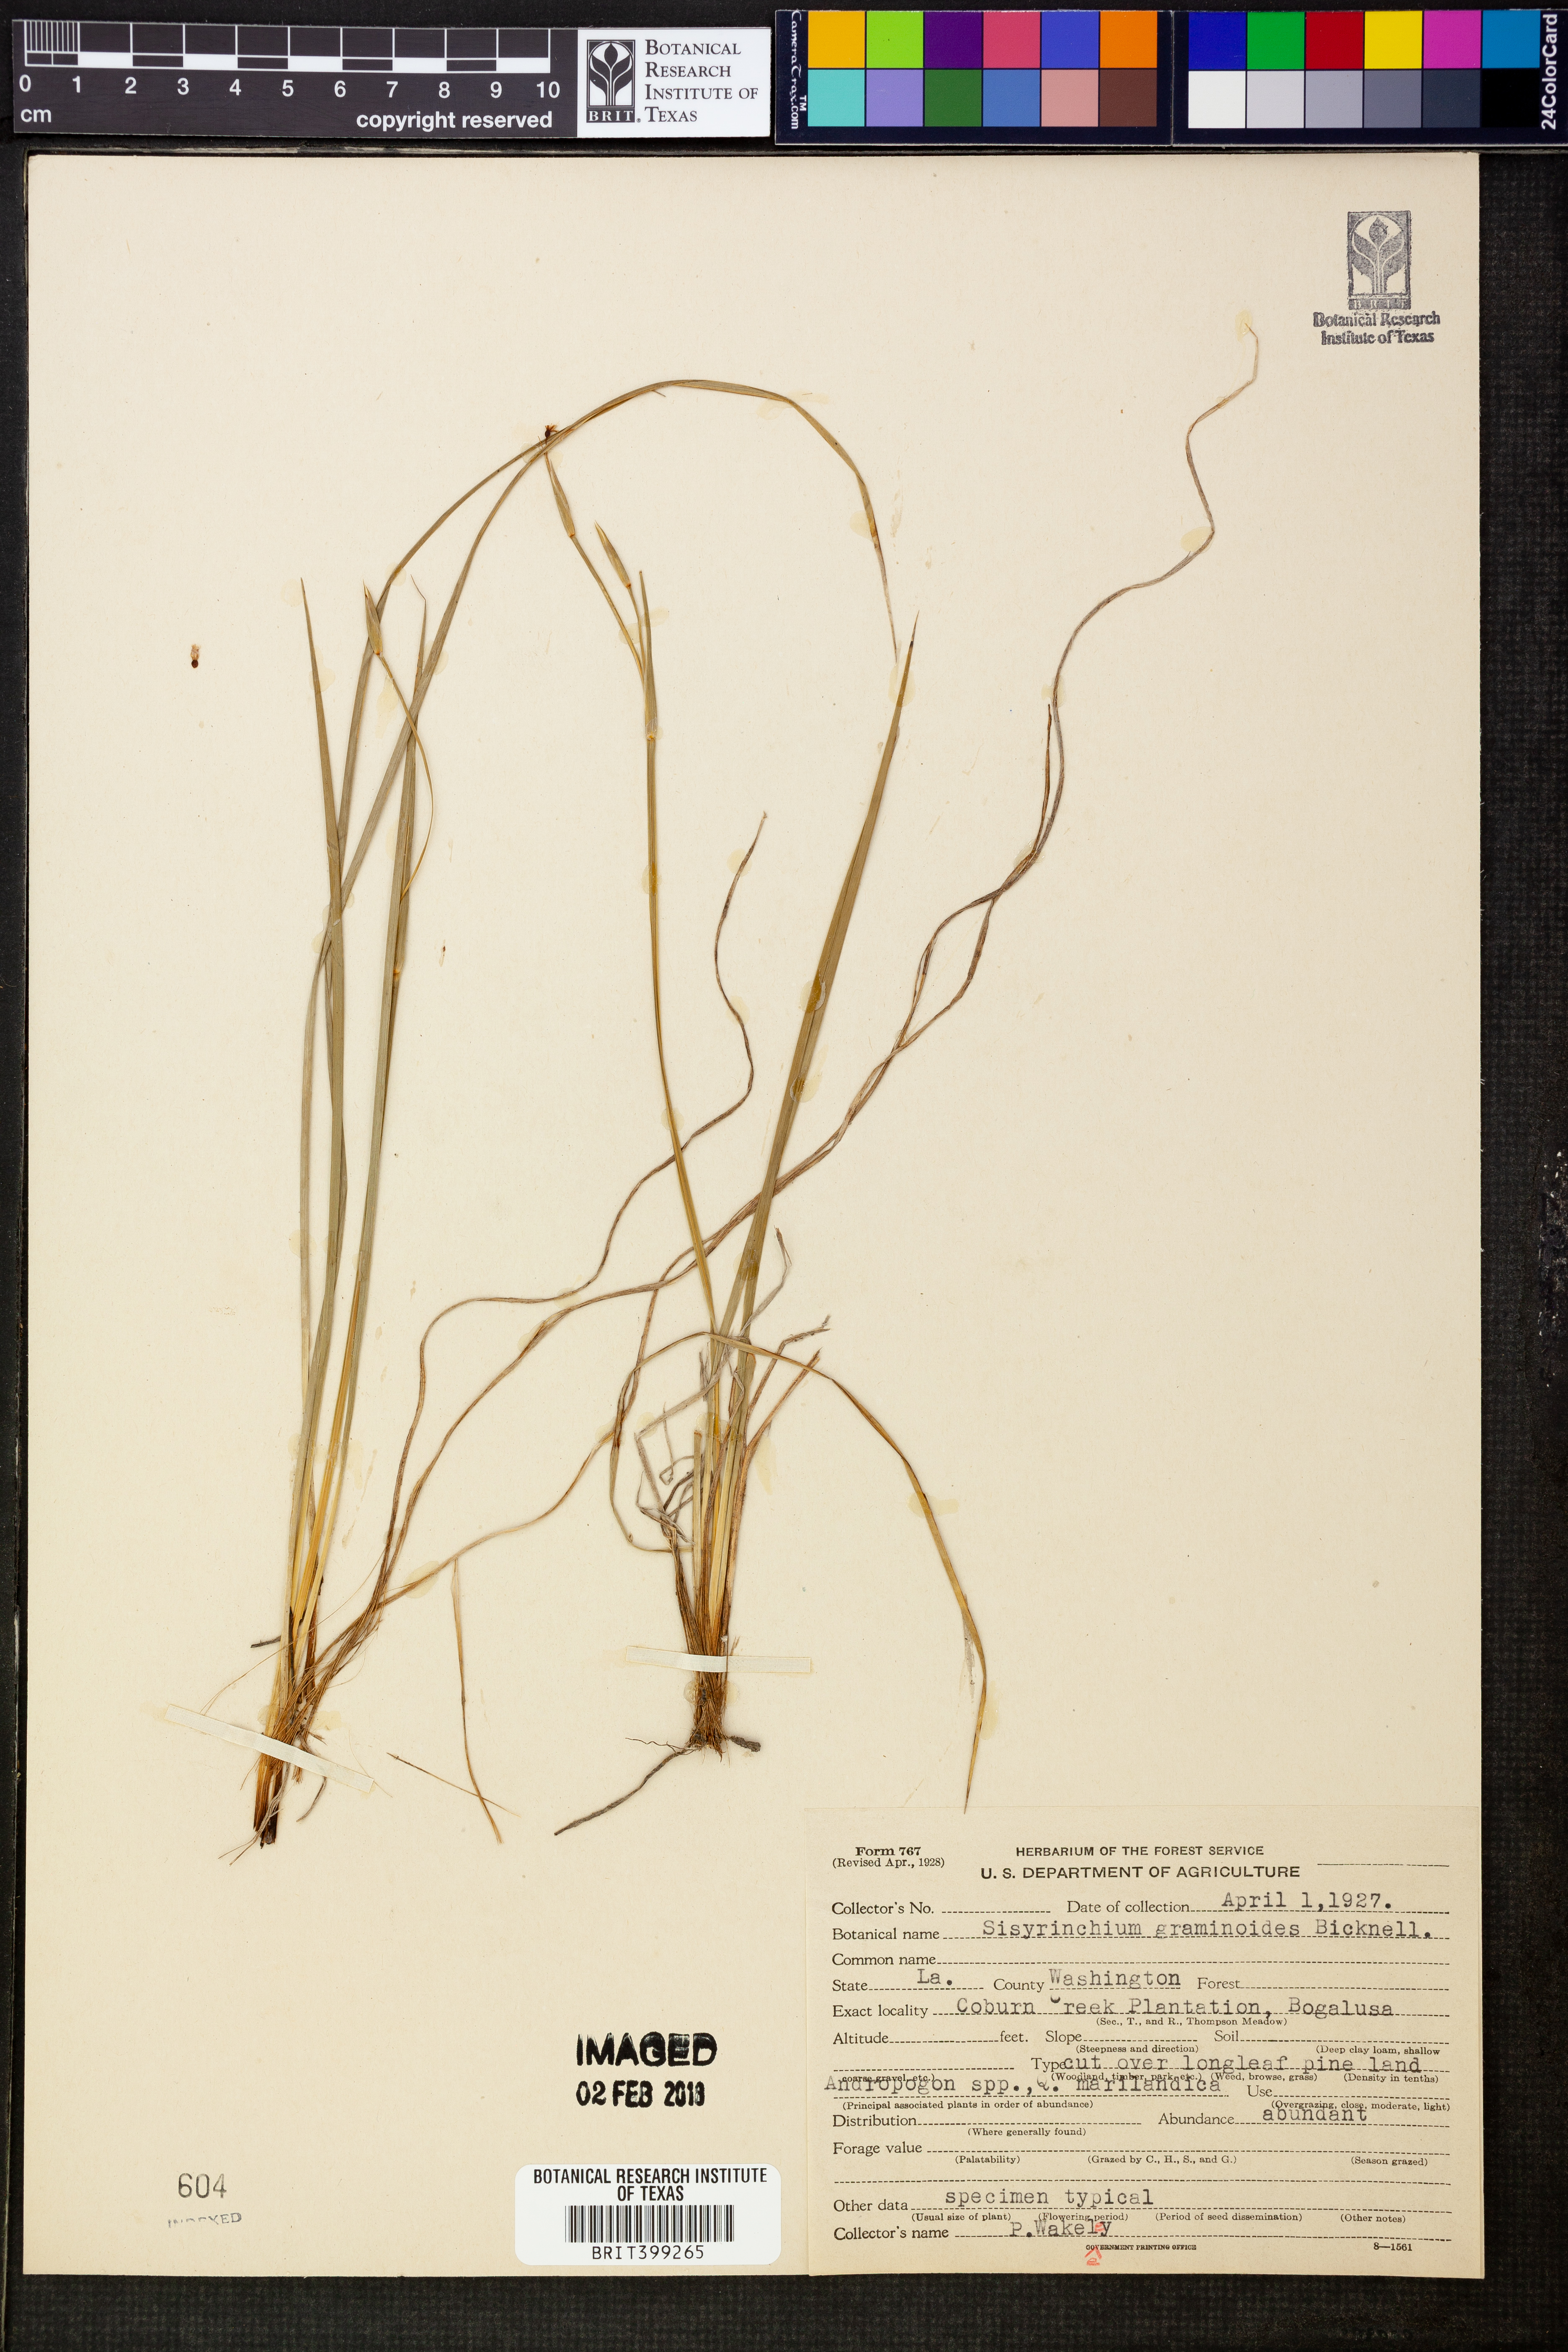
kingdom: Plantae
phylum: Tracheophyta
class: Liliopsida
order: Asparagales
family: Iridaceae
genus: Sisyrinchium
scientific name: Sisyrinchium angustifolium
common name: Narrow-leaf blue-eyed-grass
